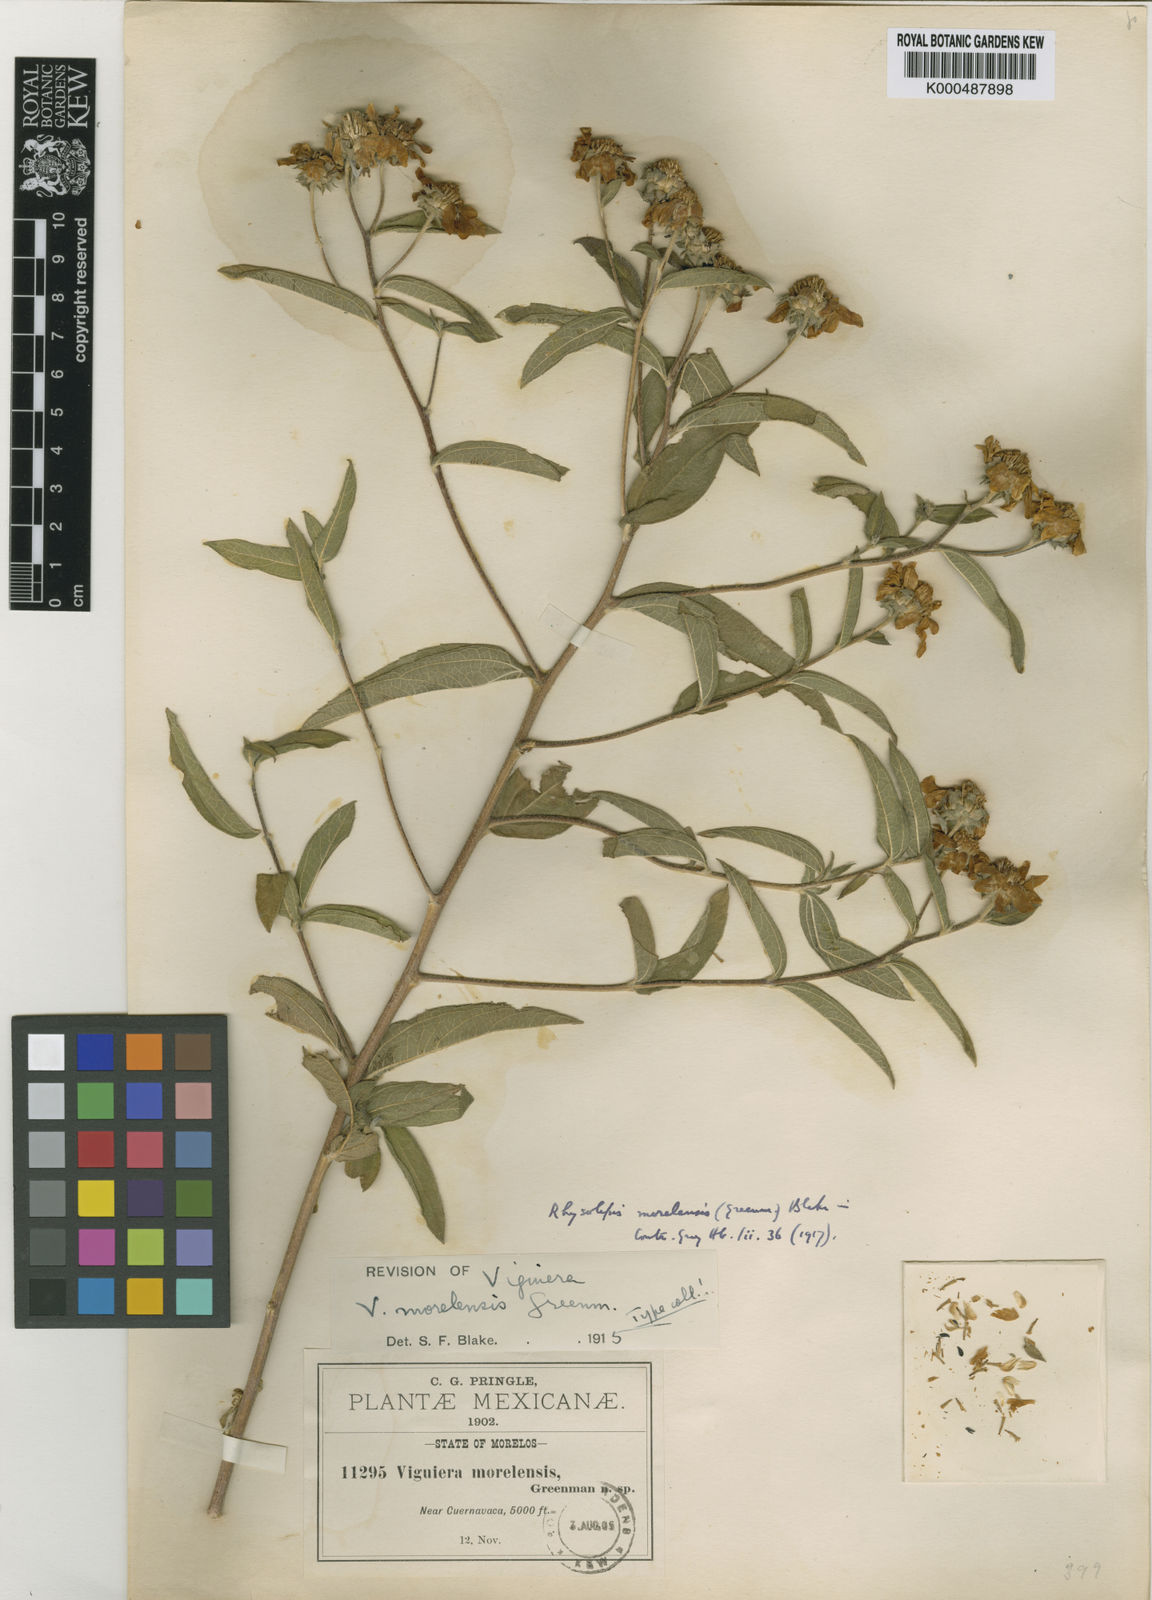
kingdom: Plantae
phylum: Tracheophyta
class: Magnoliopsida
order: Asterales
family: Asteraceae
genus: Aldama
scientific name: Aldama morelensis
